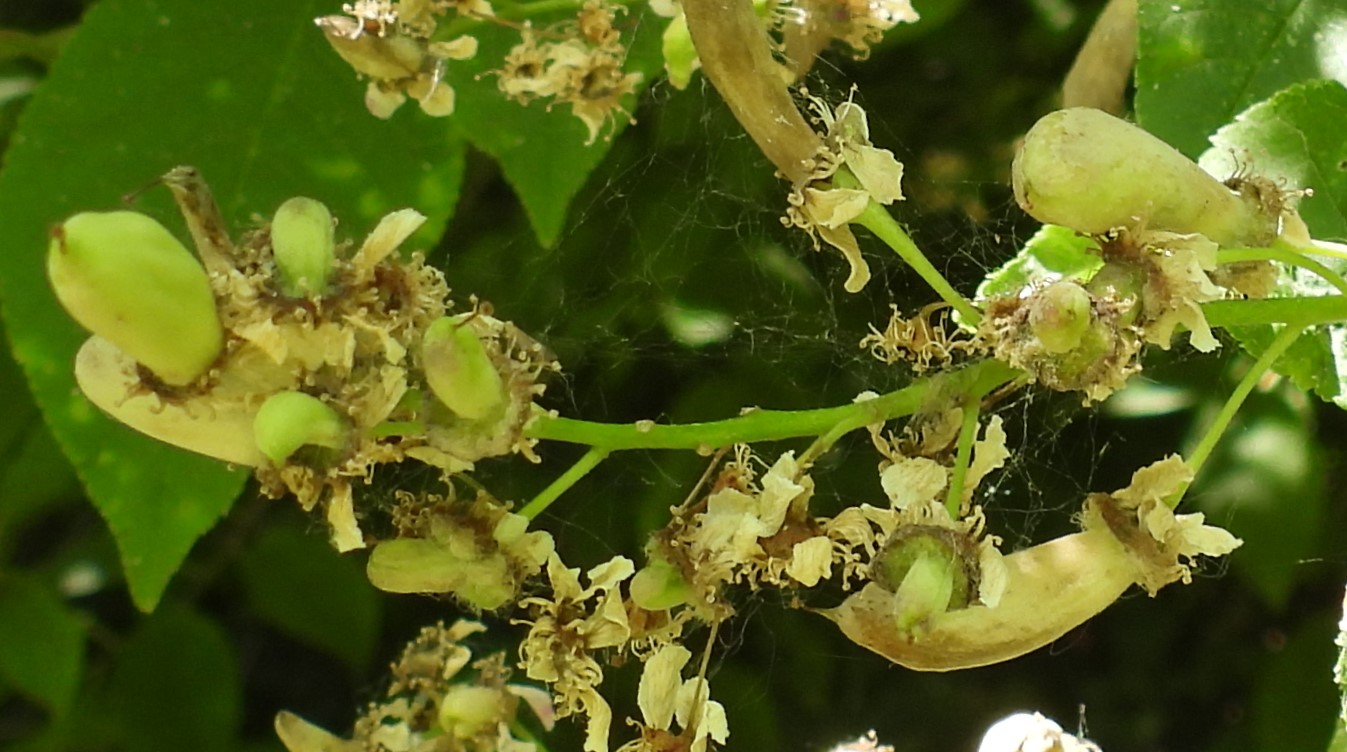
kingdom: Fungi
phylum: Ascomycota
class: Taphrinomycetes
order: Taphrinales
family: Taphrinaceae
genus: Taphrina
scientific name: Taphrina padi
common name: Bird cherry pocket
